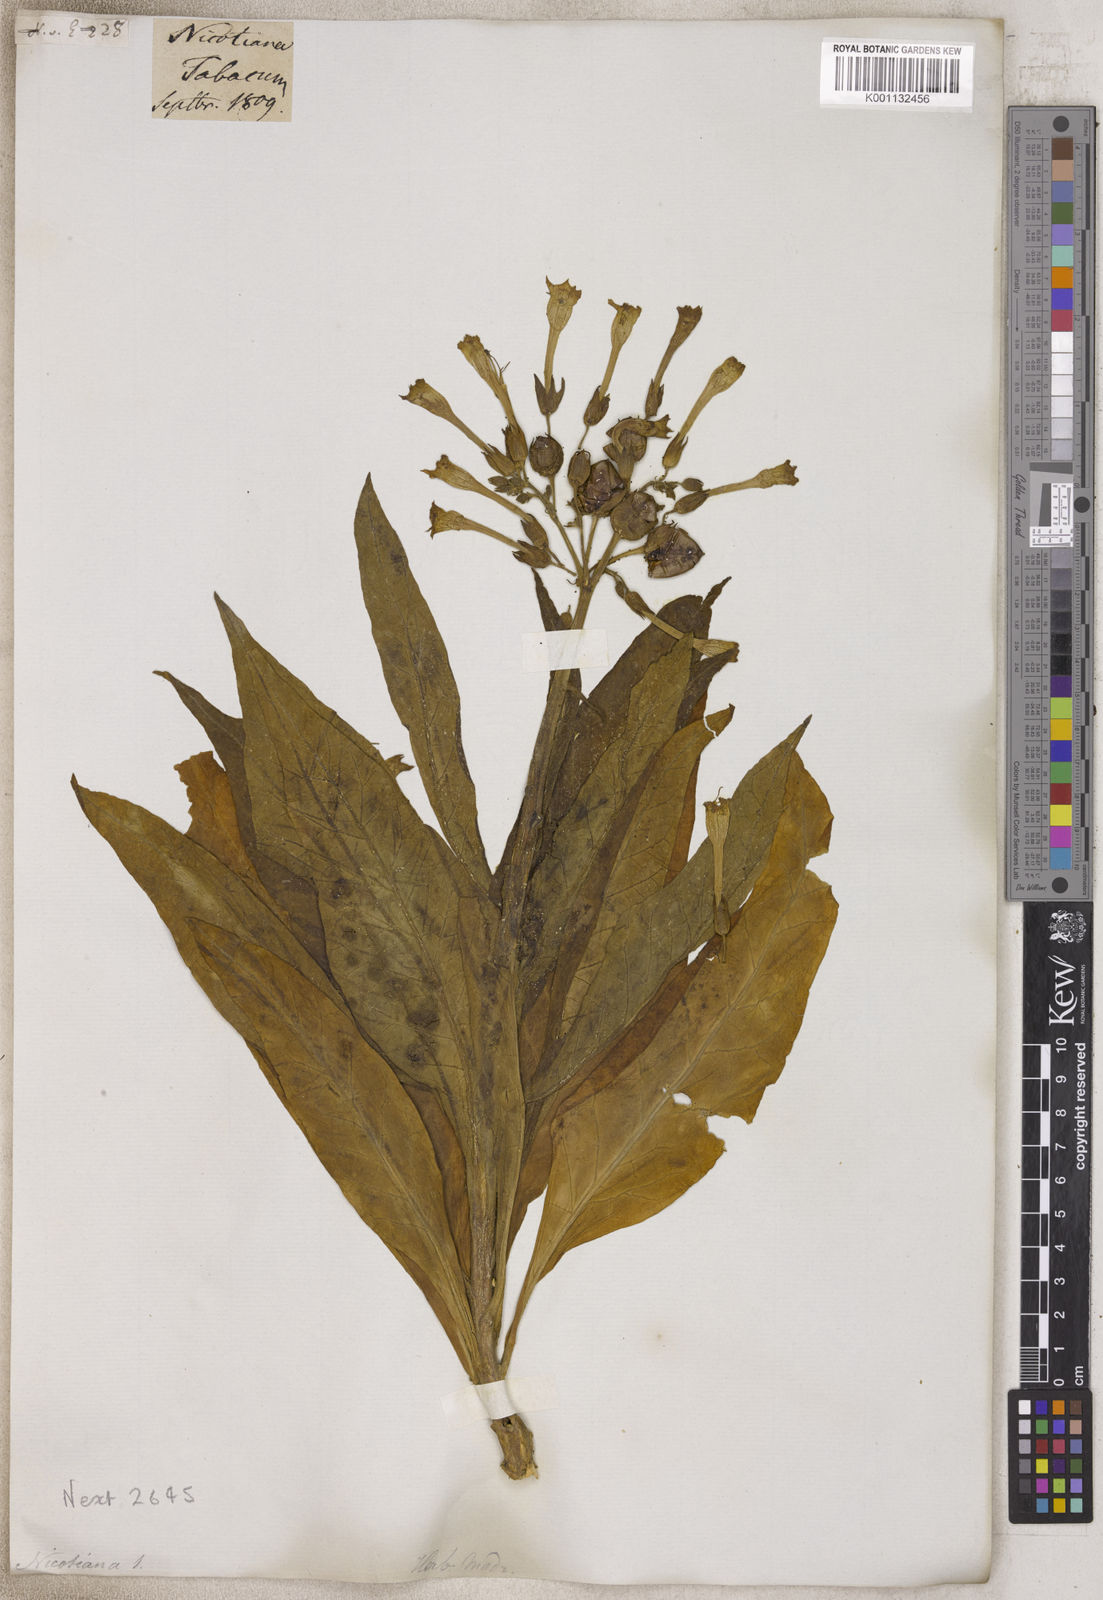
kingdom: Plantae
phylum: Tracheophyta
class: Magnoliopsida
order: Solanales
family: Solanaceae
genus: Nicotiana
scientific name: Nicotiana
